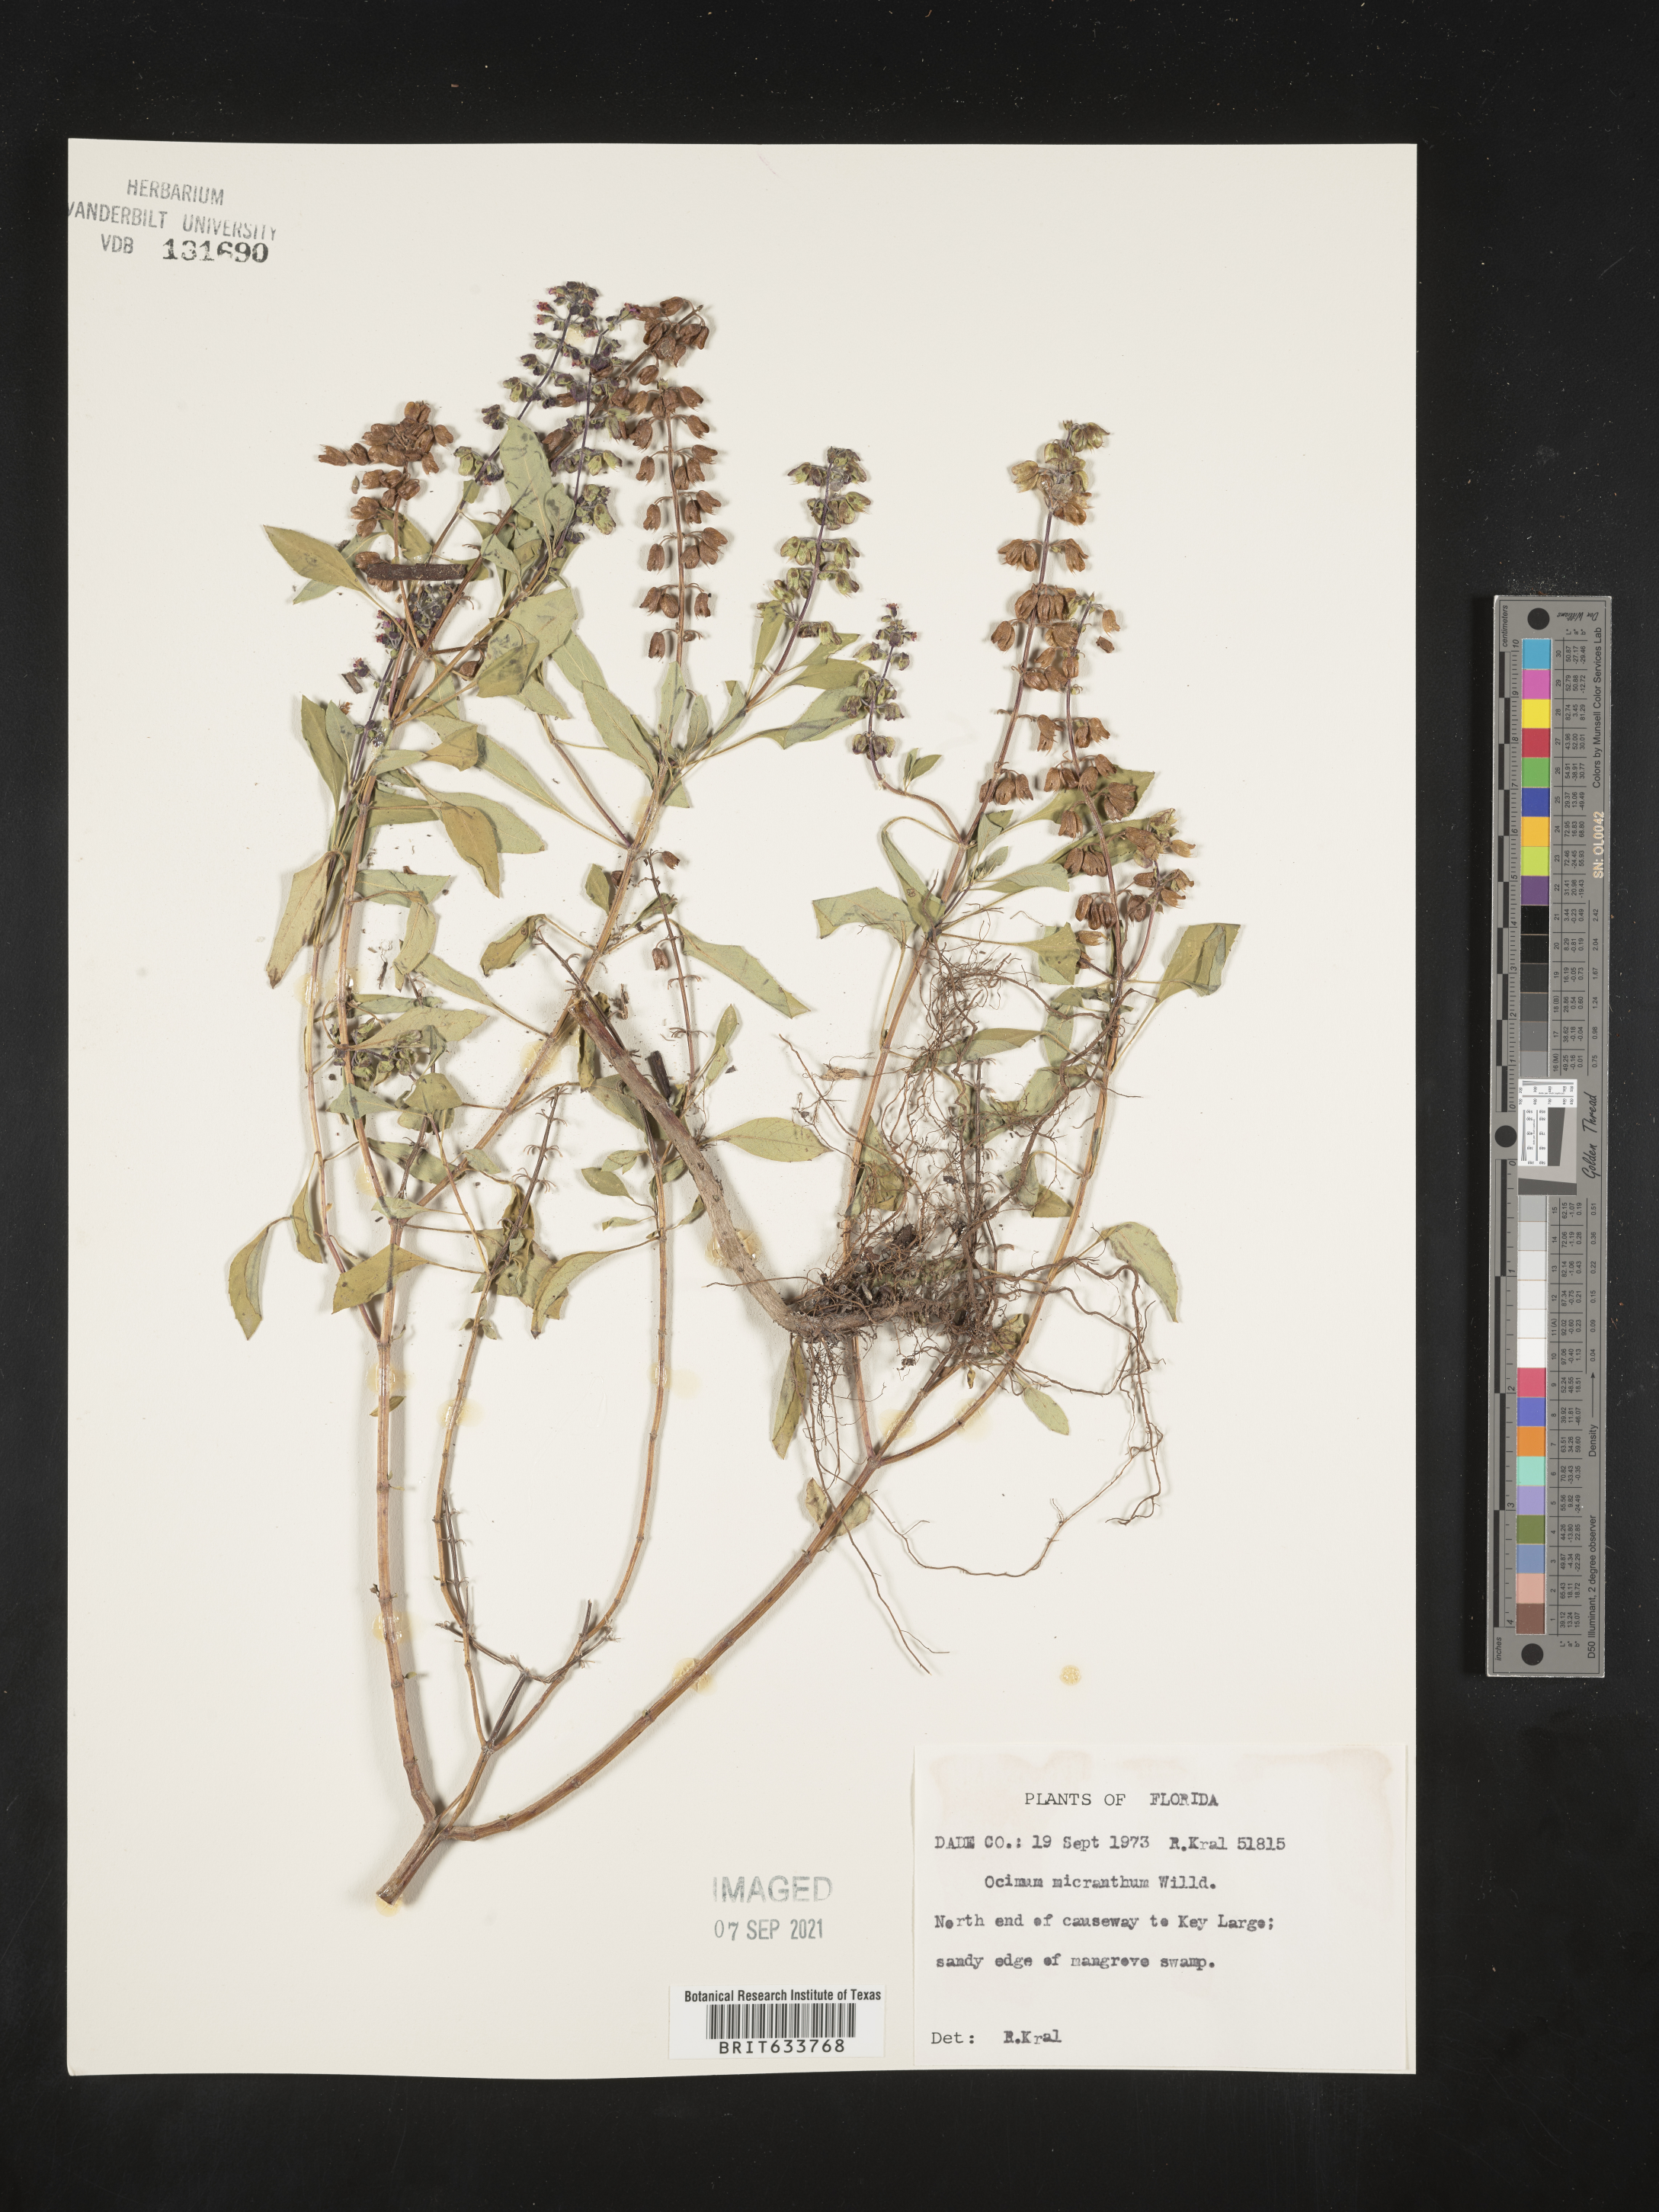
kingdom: Plantae
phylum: Tracheophyta
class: Magnoliopsida
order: Lamiales
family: Lamiaceae
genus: Ocimum
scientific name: Ocimum
